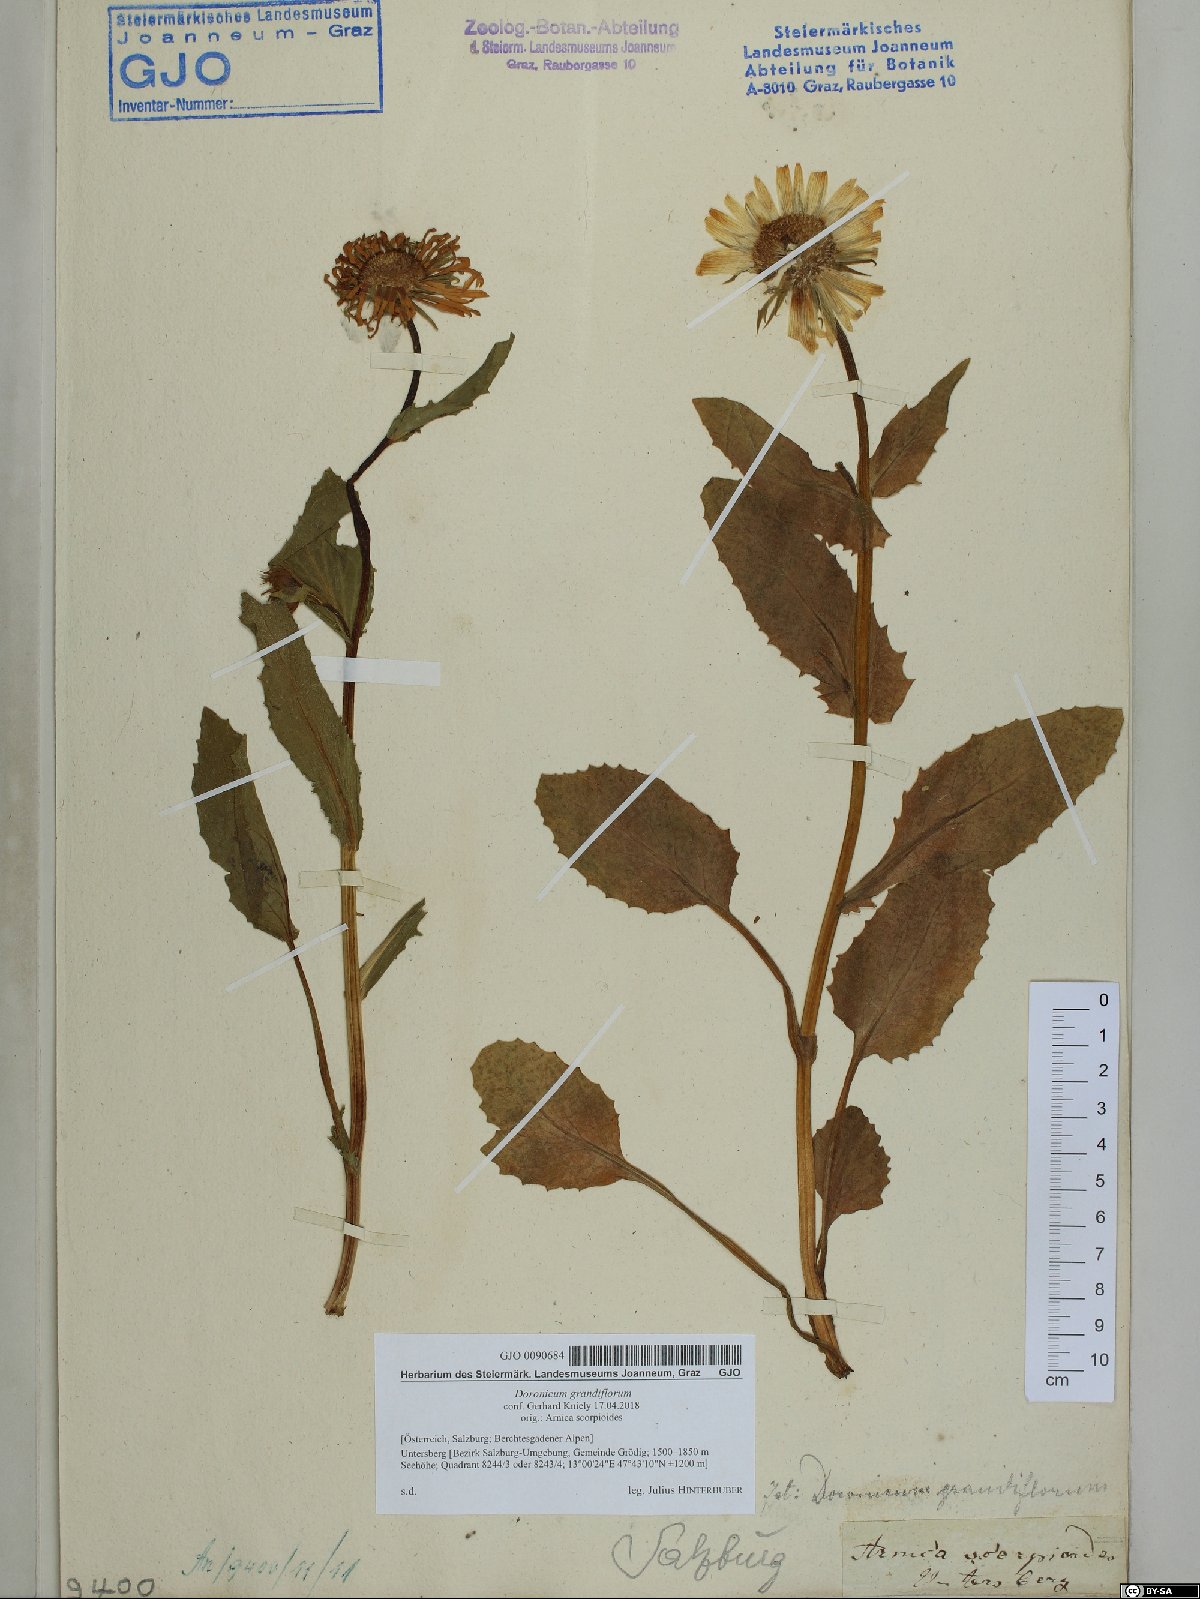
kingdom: Plantae
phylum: Tracheophyta
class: Magnoliopsida
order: Asterales
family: Asteraceae
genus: Doronicum
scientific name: Doronicum grandiflorum
